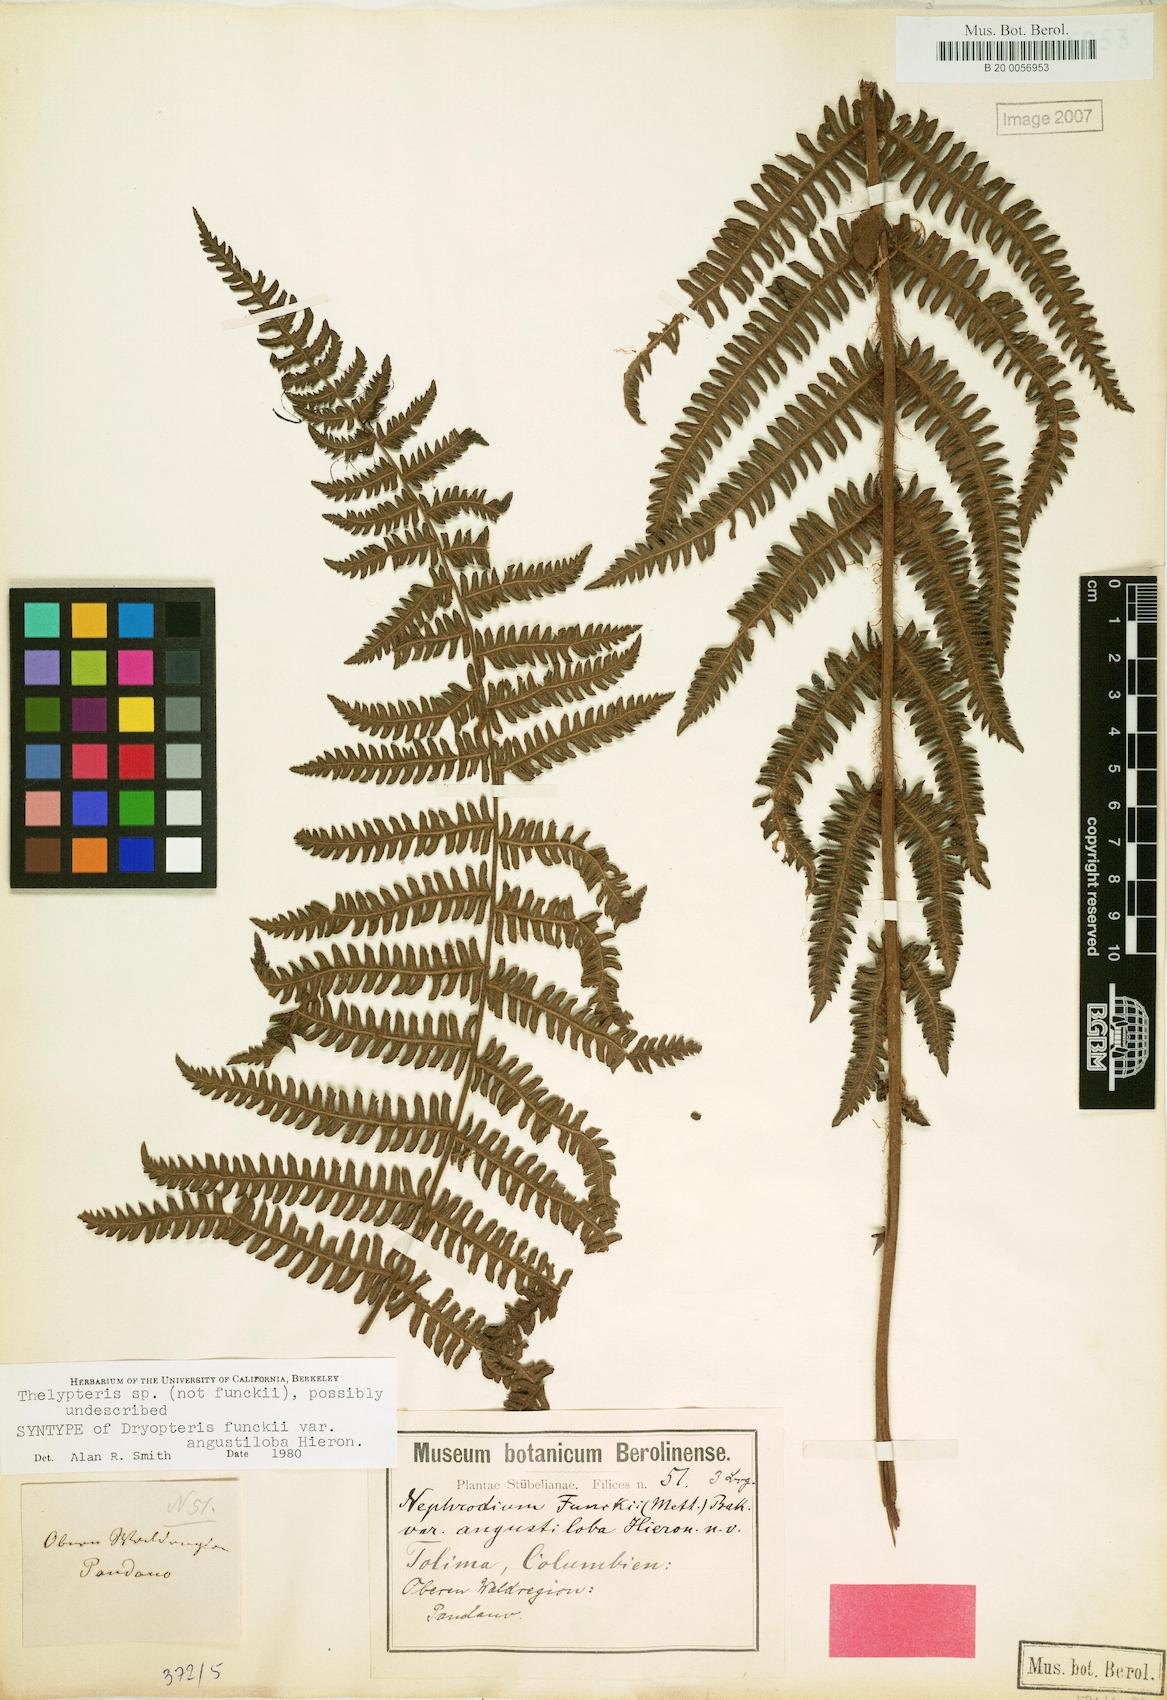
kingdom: Plantae
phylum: Tracheophyta
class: Polypodiopsida
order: Polypodiales
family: Thelypteridaceae
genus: Amauropelta
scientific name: Amauropelta corazonensis
